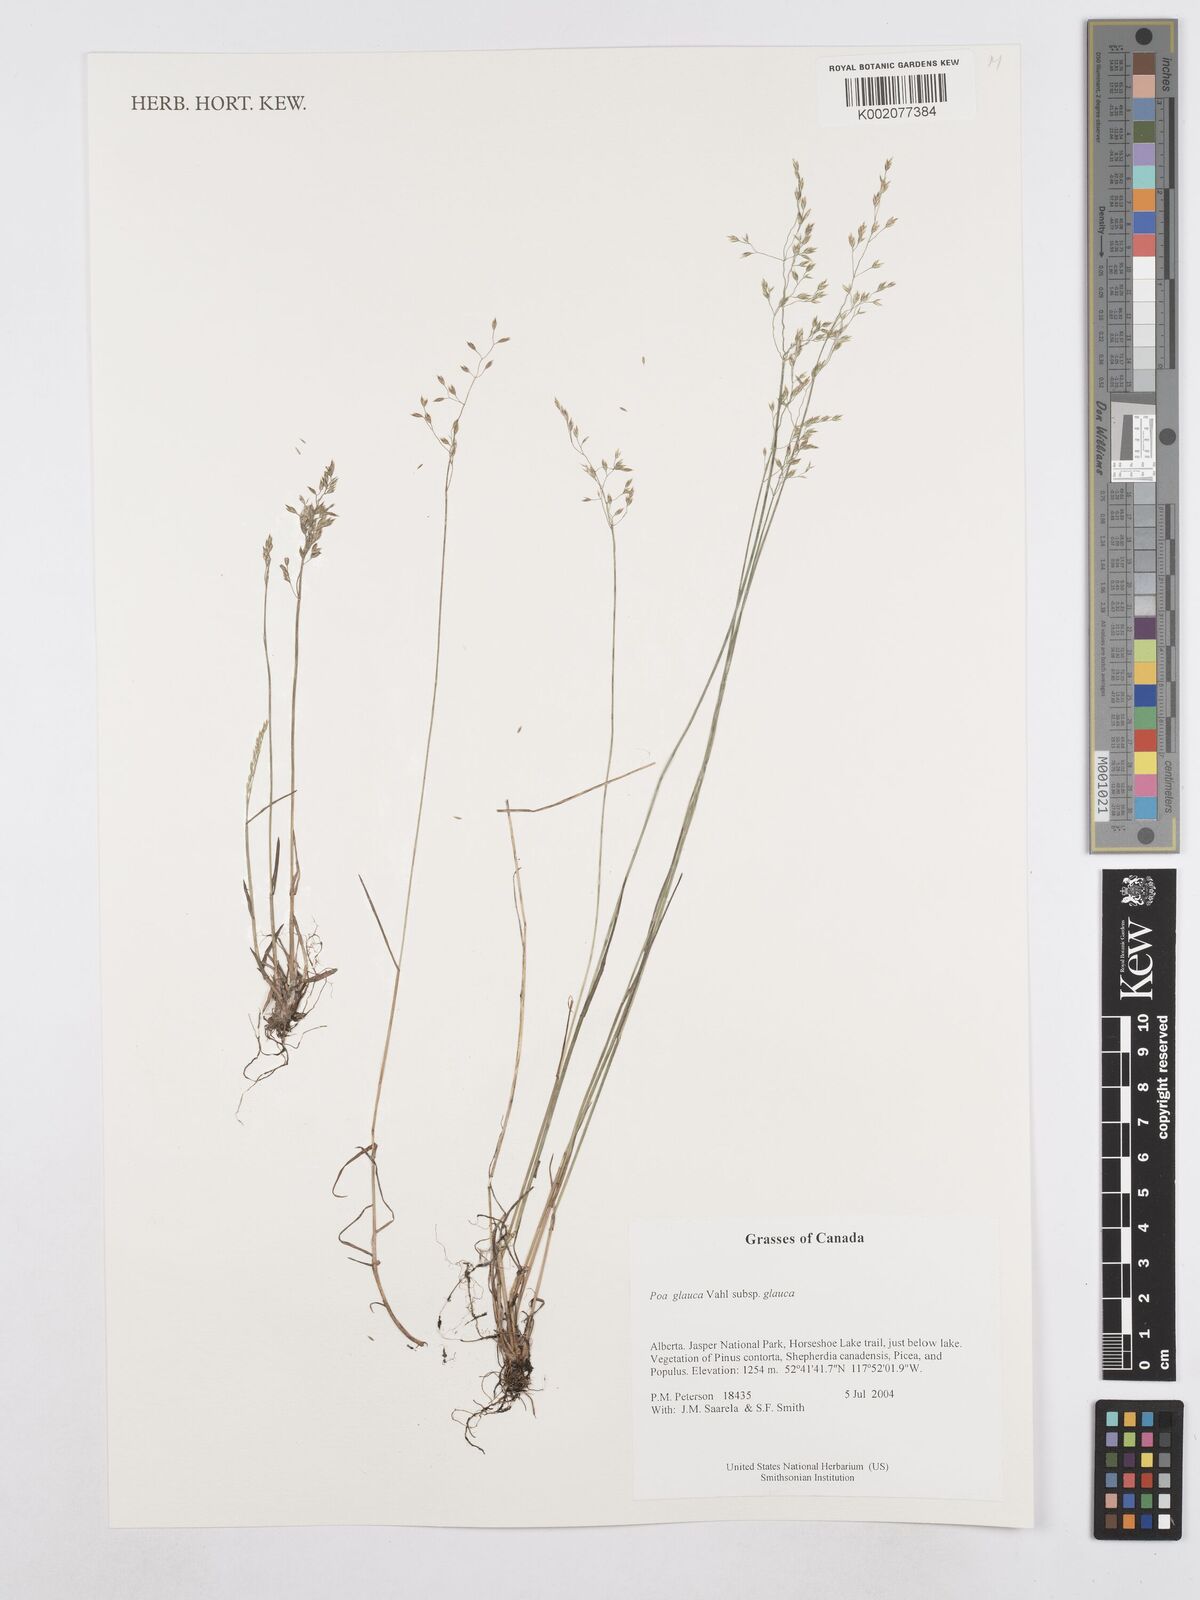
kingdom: Plantae
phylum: Tracheophyta
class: Liliopsida
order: Poales
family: Poaceae
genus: Poa
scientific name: Poa glauca
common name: Glaucous bluegrass
